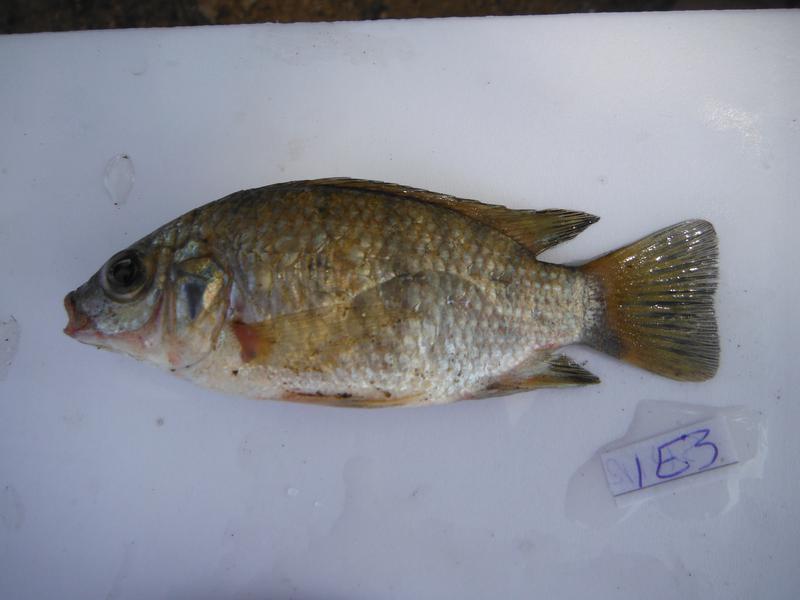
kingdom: Animalia
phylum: Chordata
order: Perciformes
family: Cichlidae
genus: Oreochromis
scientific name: Oreochromis urolepis
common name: Wami tilapia
